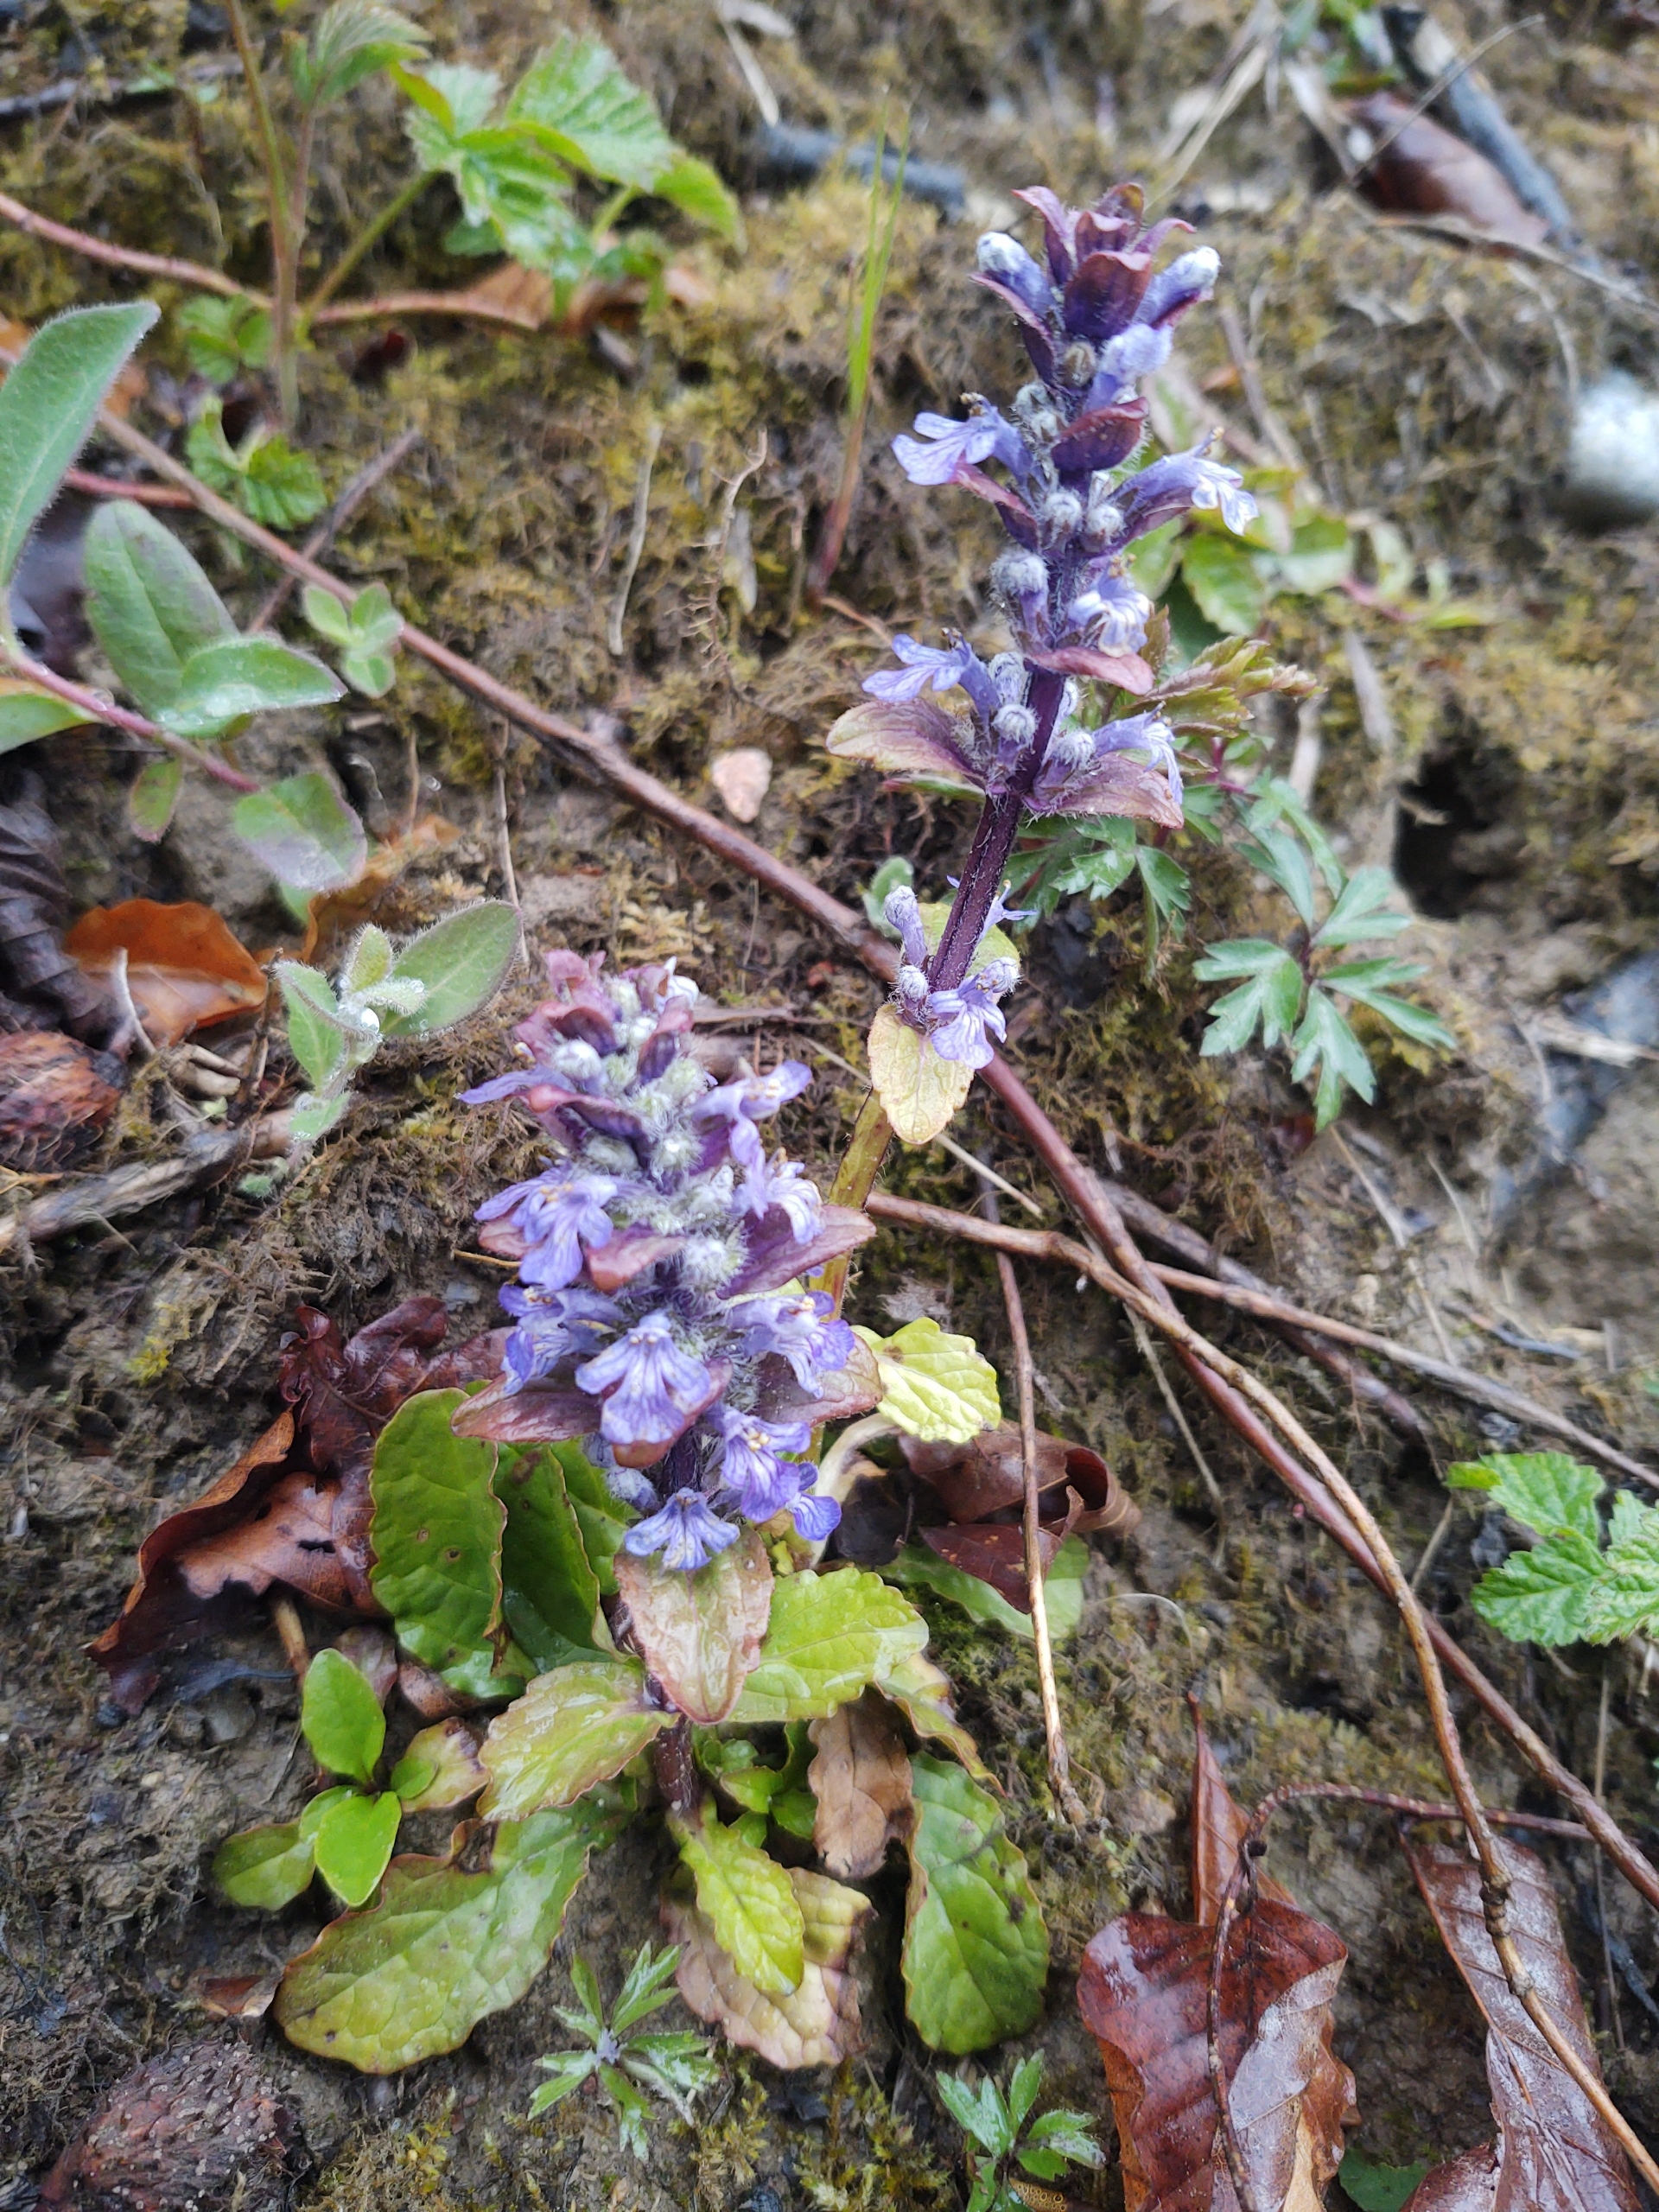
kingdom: Plantae
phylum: Tracheophyta
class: Magnoliopsida
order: Lamiales
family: Lamiaceae
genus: Ajuga
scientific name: Ajuga reptans
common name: Krybende læbeløs
